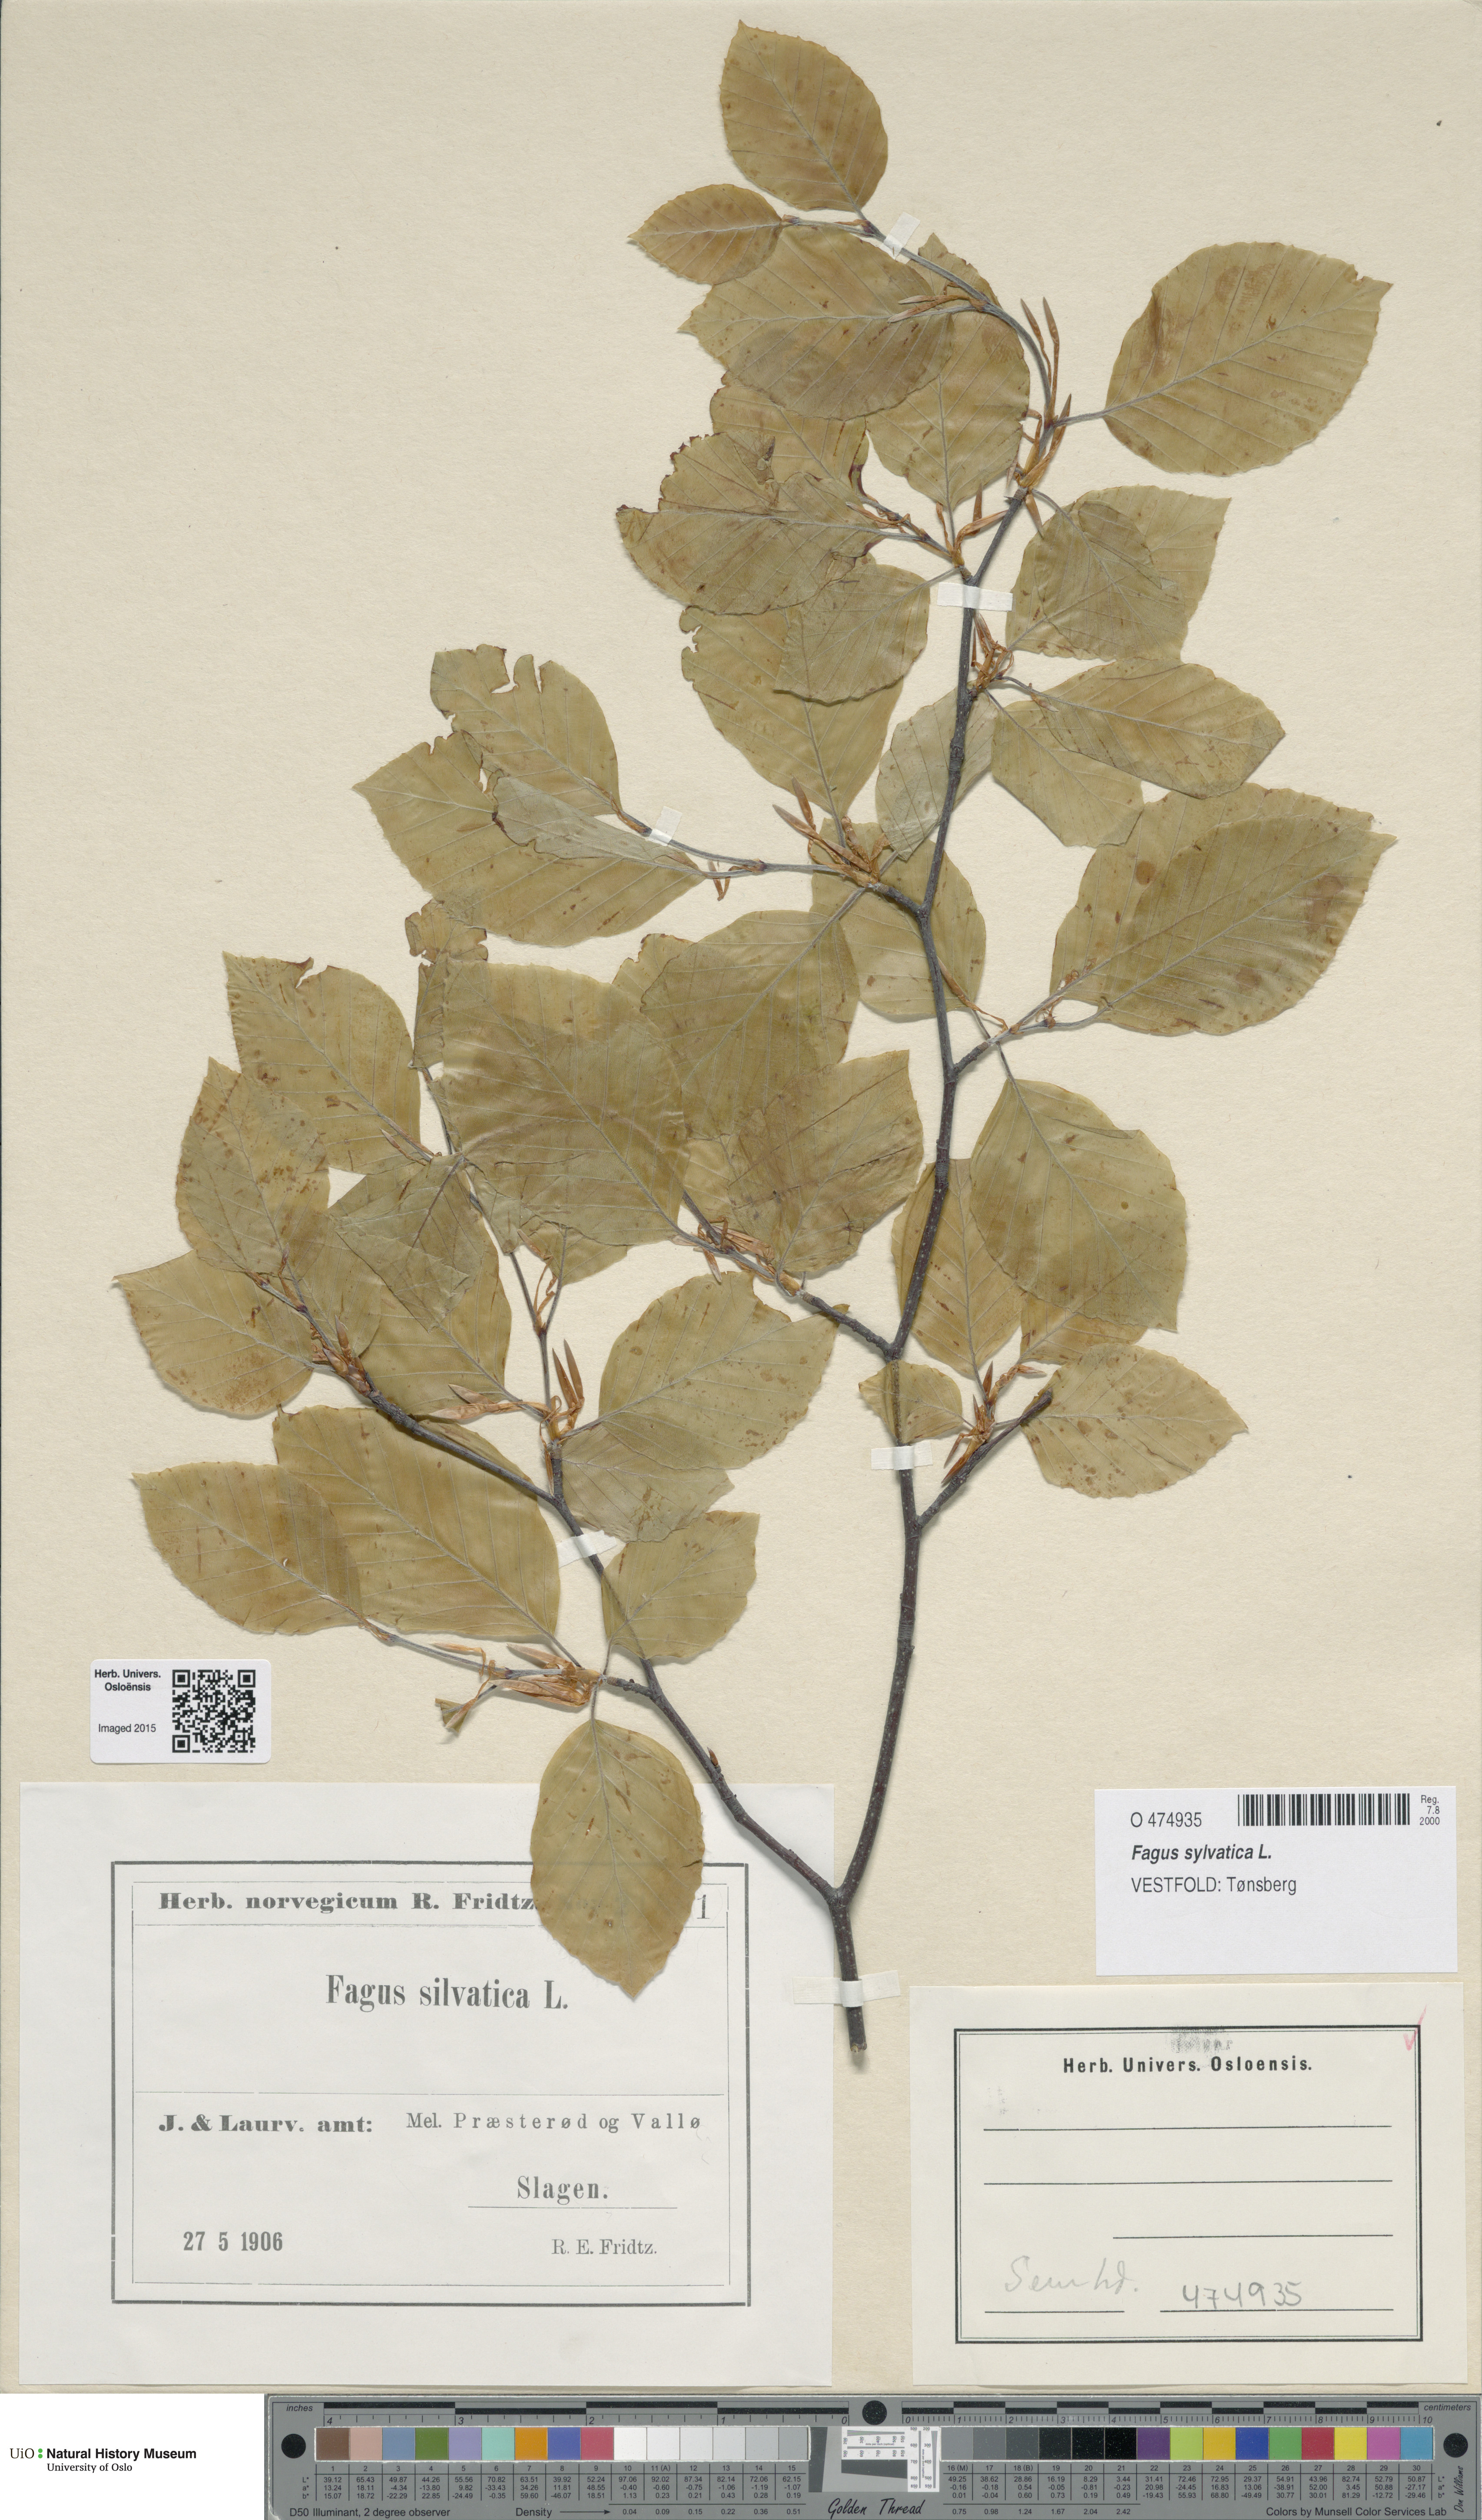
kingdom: Plantae
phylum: Tracheophyta
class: Magnoliopsida
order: Fagales
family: Fagaceae
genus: Fagus
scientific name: Fagus sylvatica
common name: Beech
